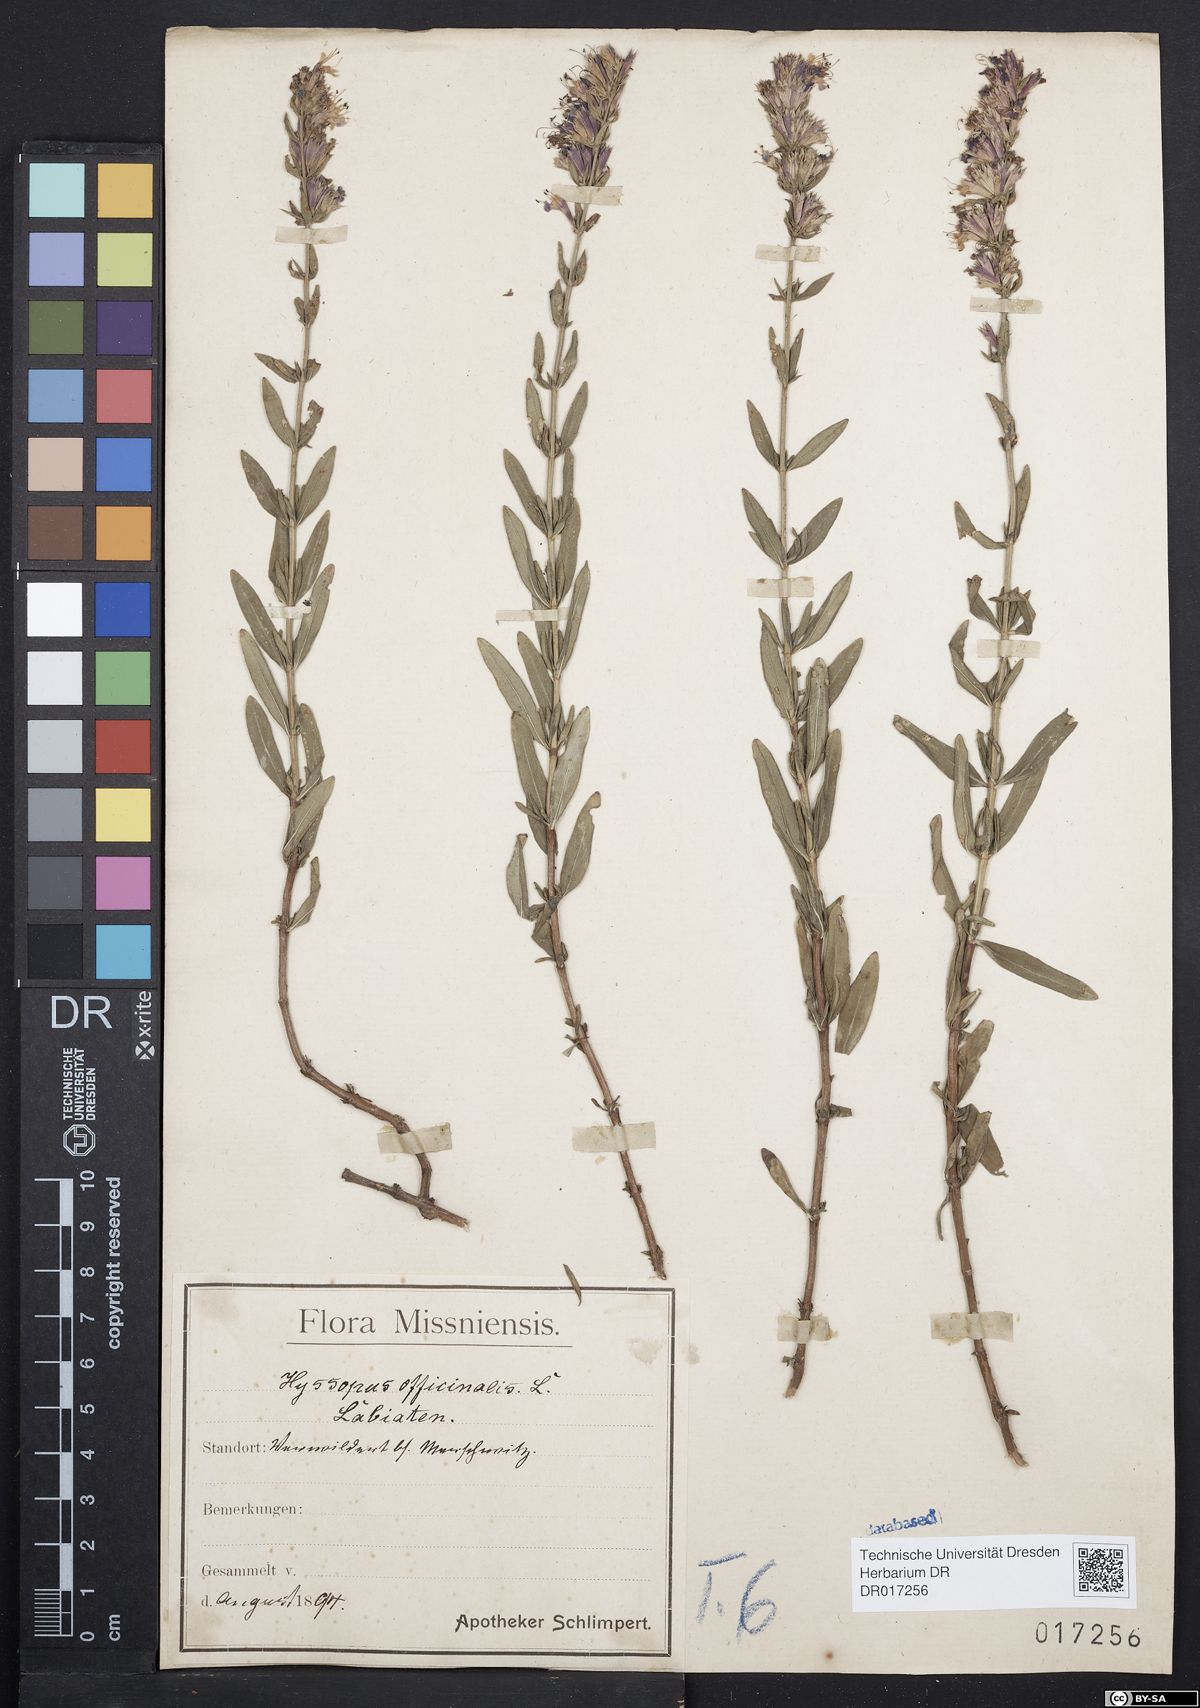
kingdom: Plantae
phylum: Tracheophyta
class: Magnoliopsida
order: Lamiales
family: Lamiaceae
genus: Hyssopus
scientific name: Hyssopus officinalis
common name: Hyssop
